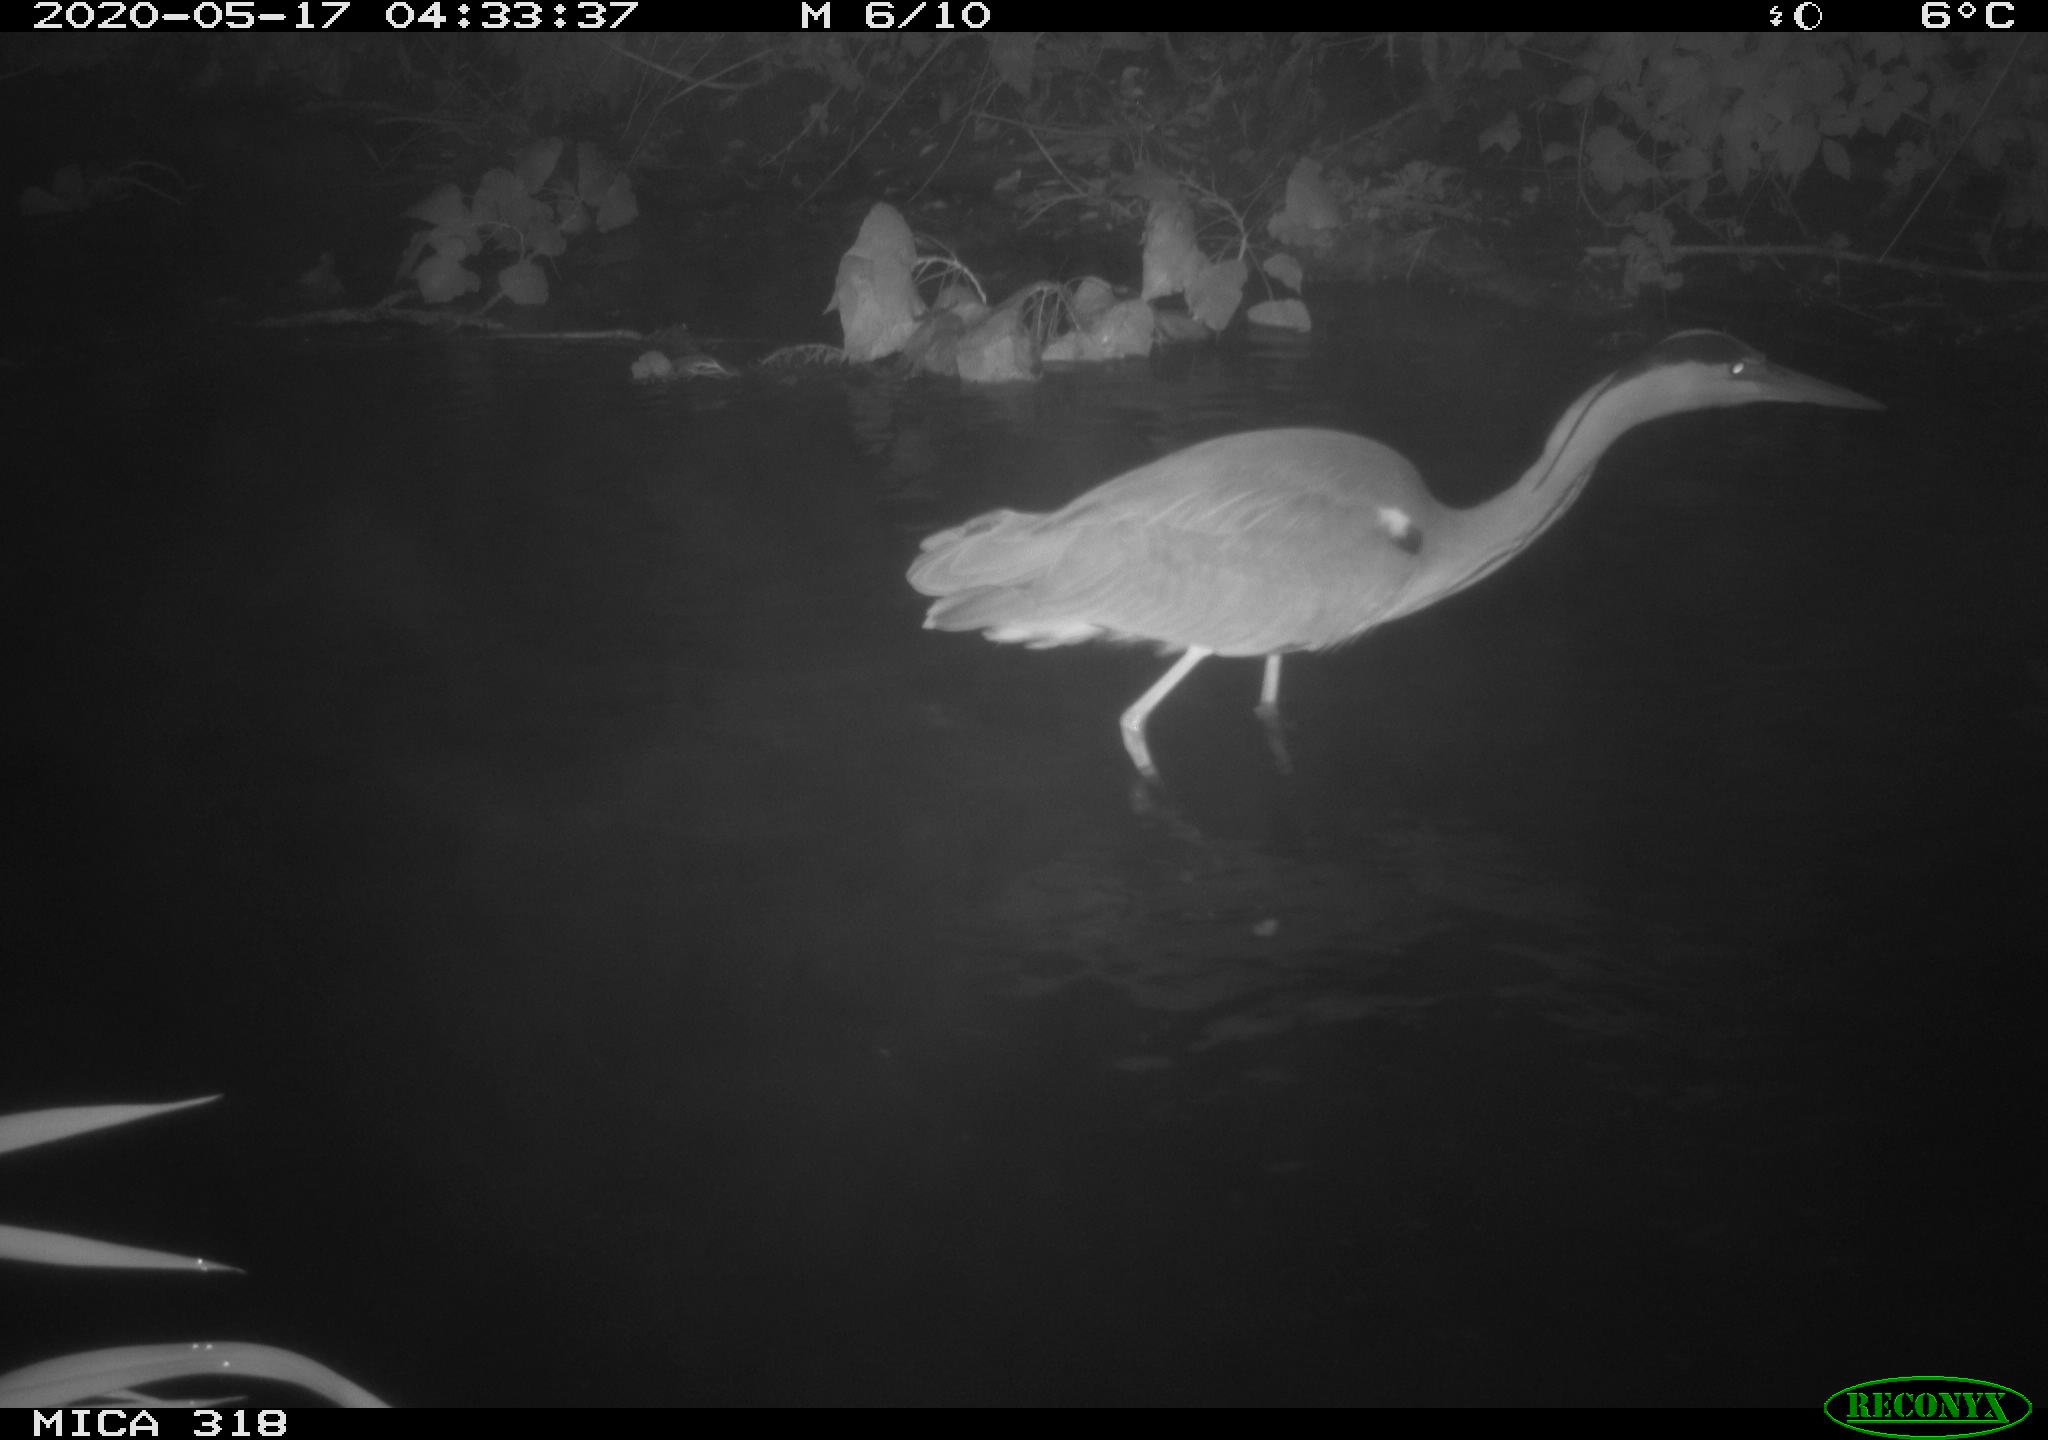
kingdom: Animalia
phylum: Chordata
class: Aves
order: Pelecaniformes
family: Ardeidae
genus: Ardea
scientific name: Ardea cinerea
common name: Grey heron
